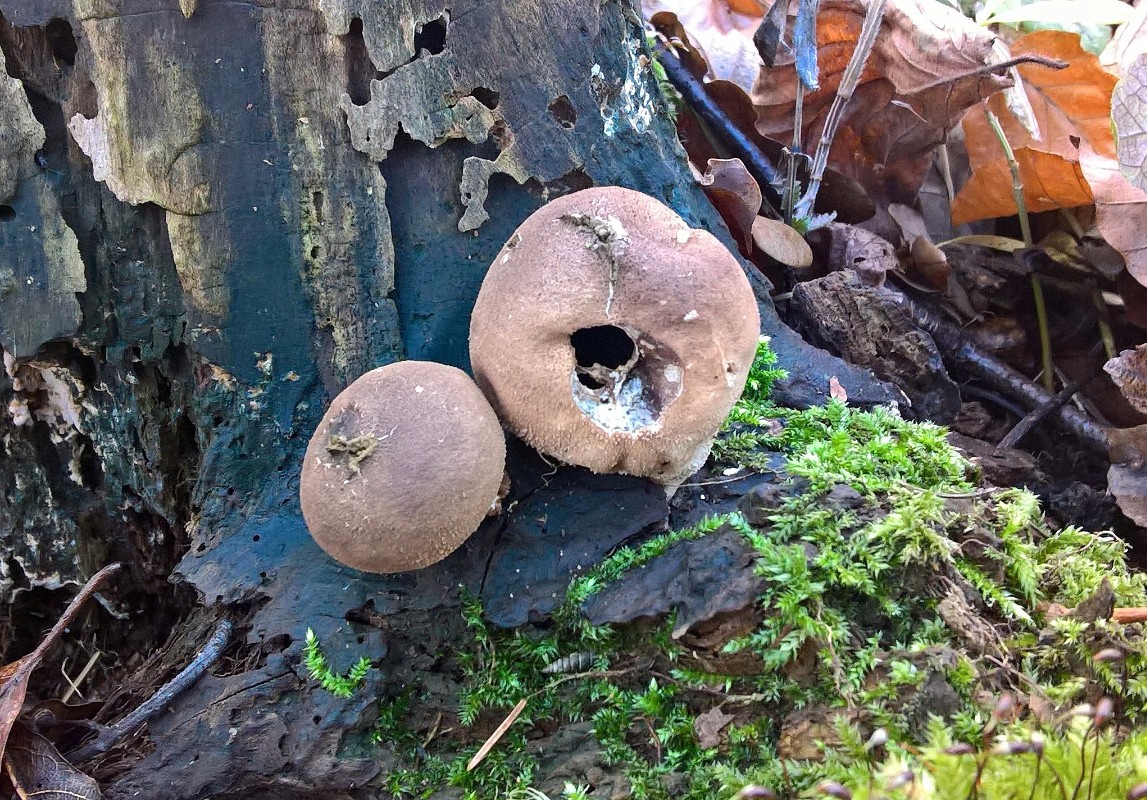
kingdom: Fungi
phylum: Basidiomycota
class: Agaricomycetes
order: Agaricales
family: Lycoperdaceae
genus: Apioperdon
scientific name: Apioperdon pyriforme
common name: pære-støvbold
